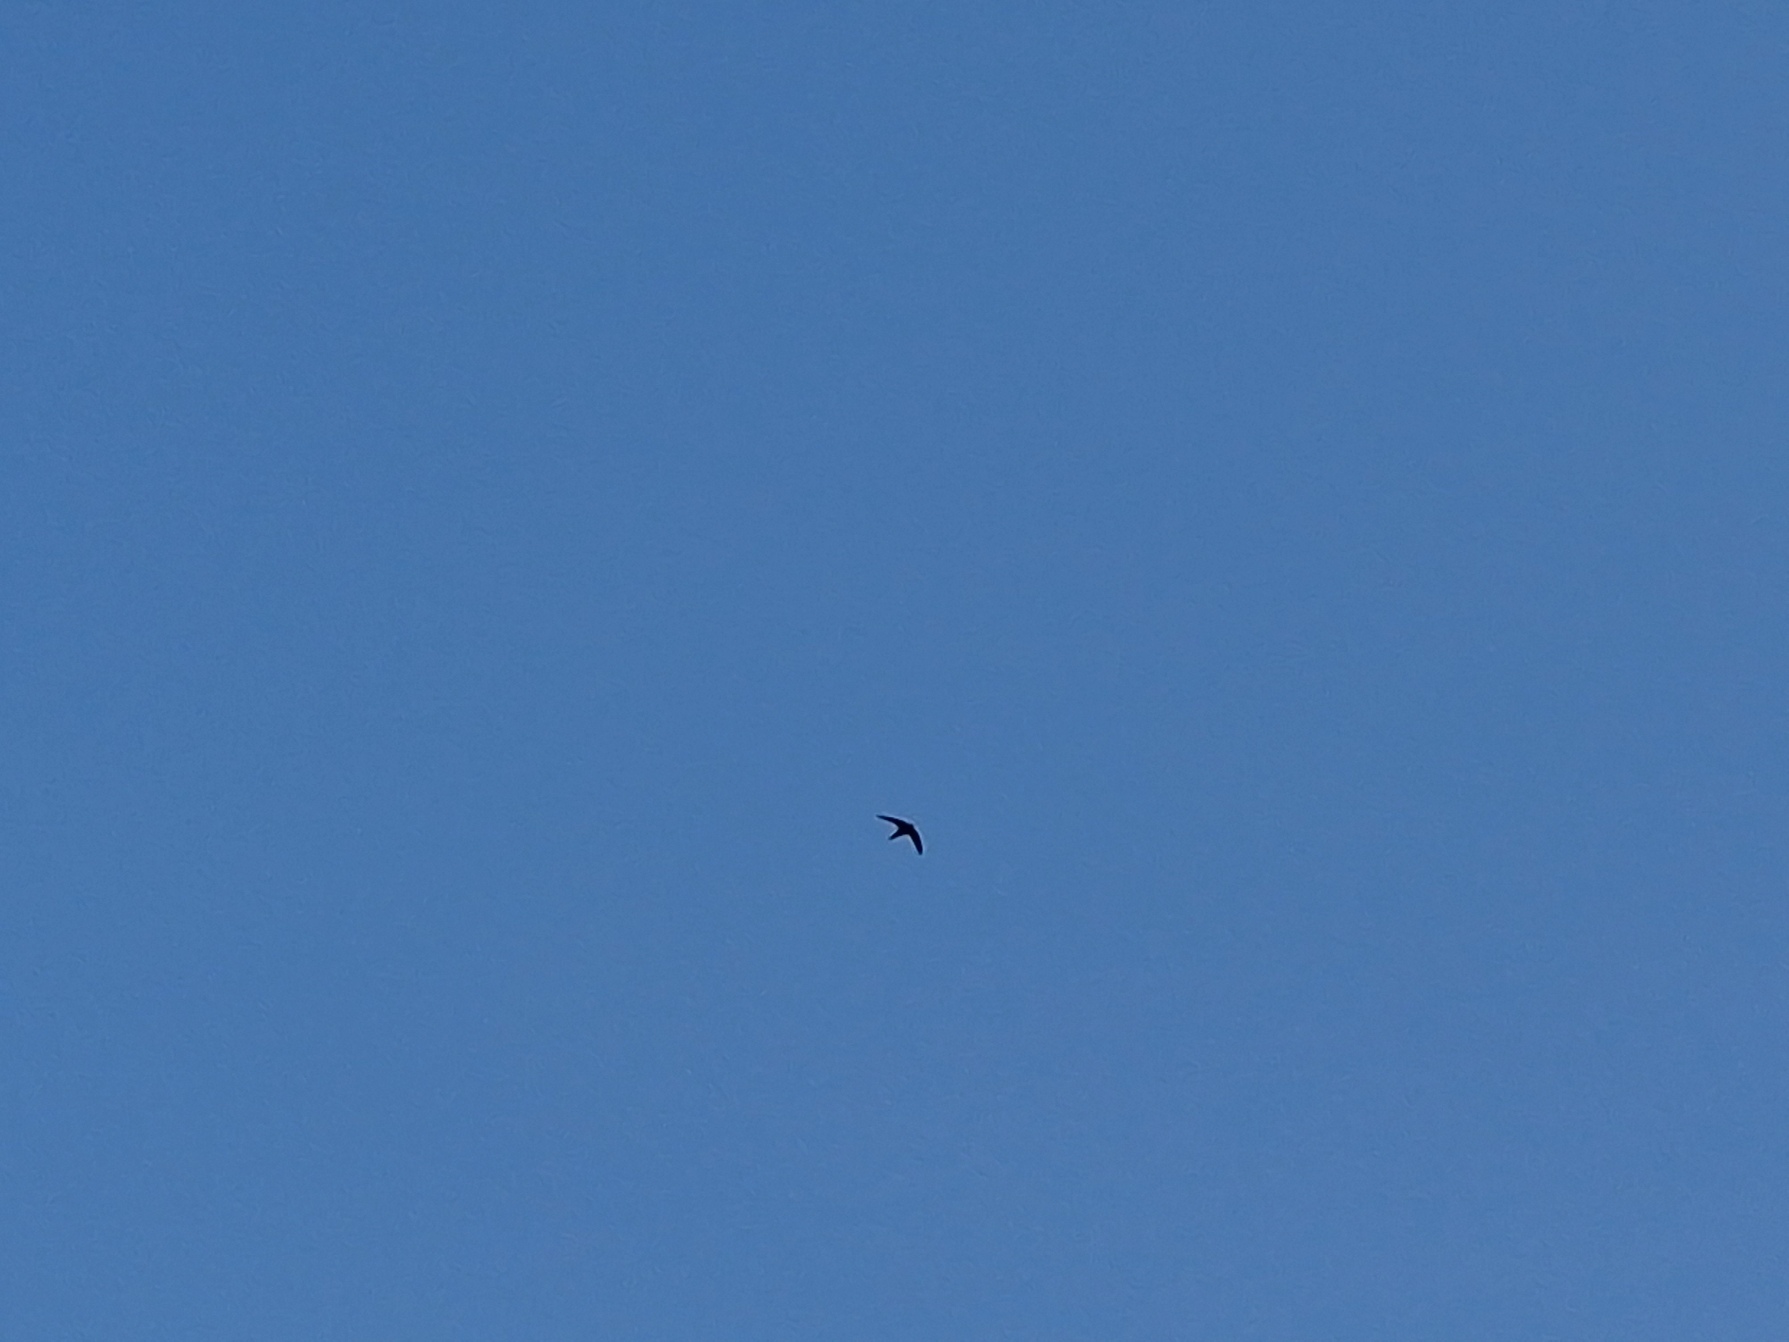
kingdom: Animalia
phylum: Chordata
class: Aves
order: Apodiformes
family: Apodidae
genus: Apus
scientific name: Apus apus
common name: Mursejler
